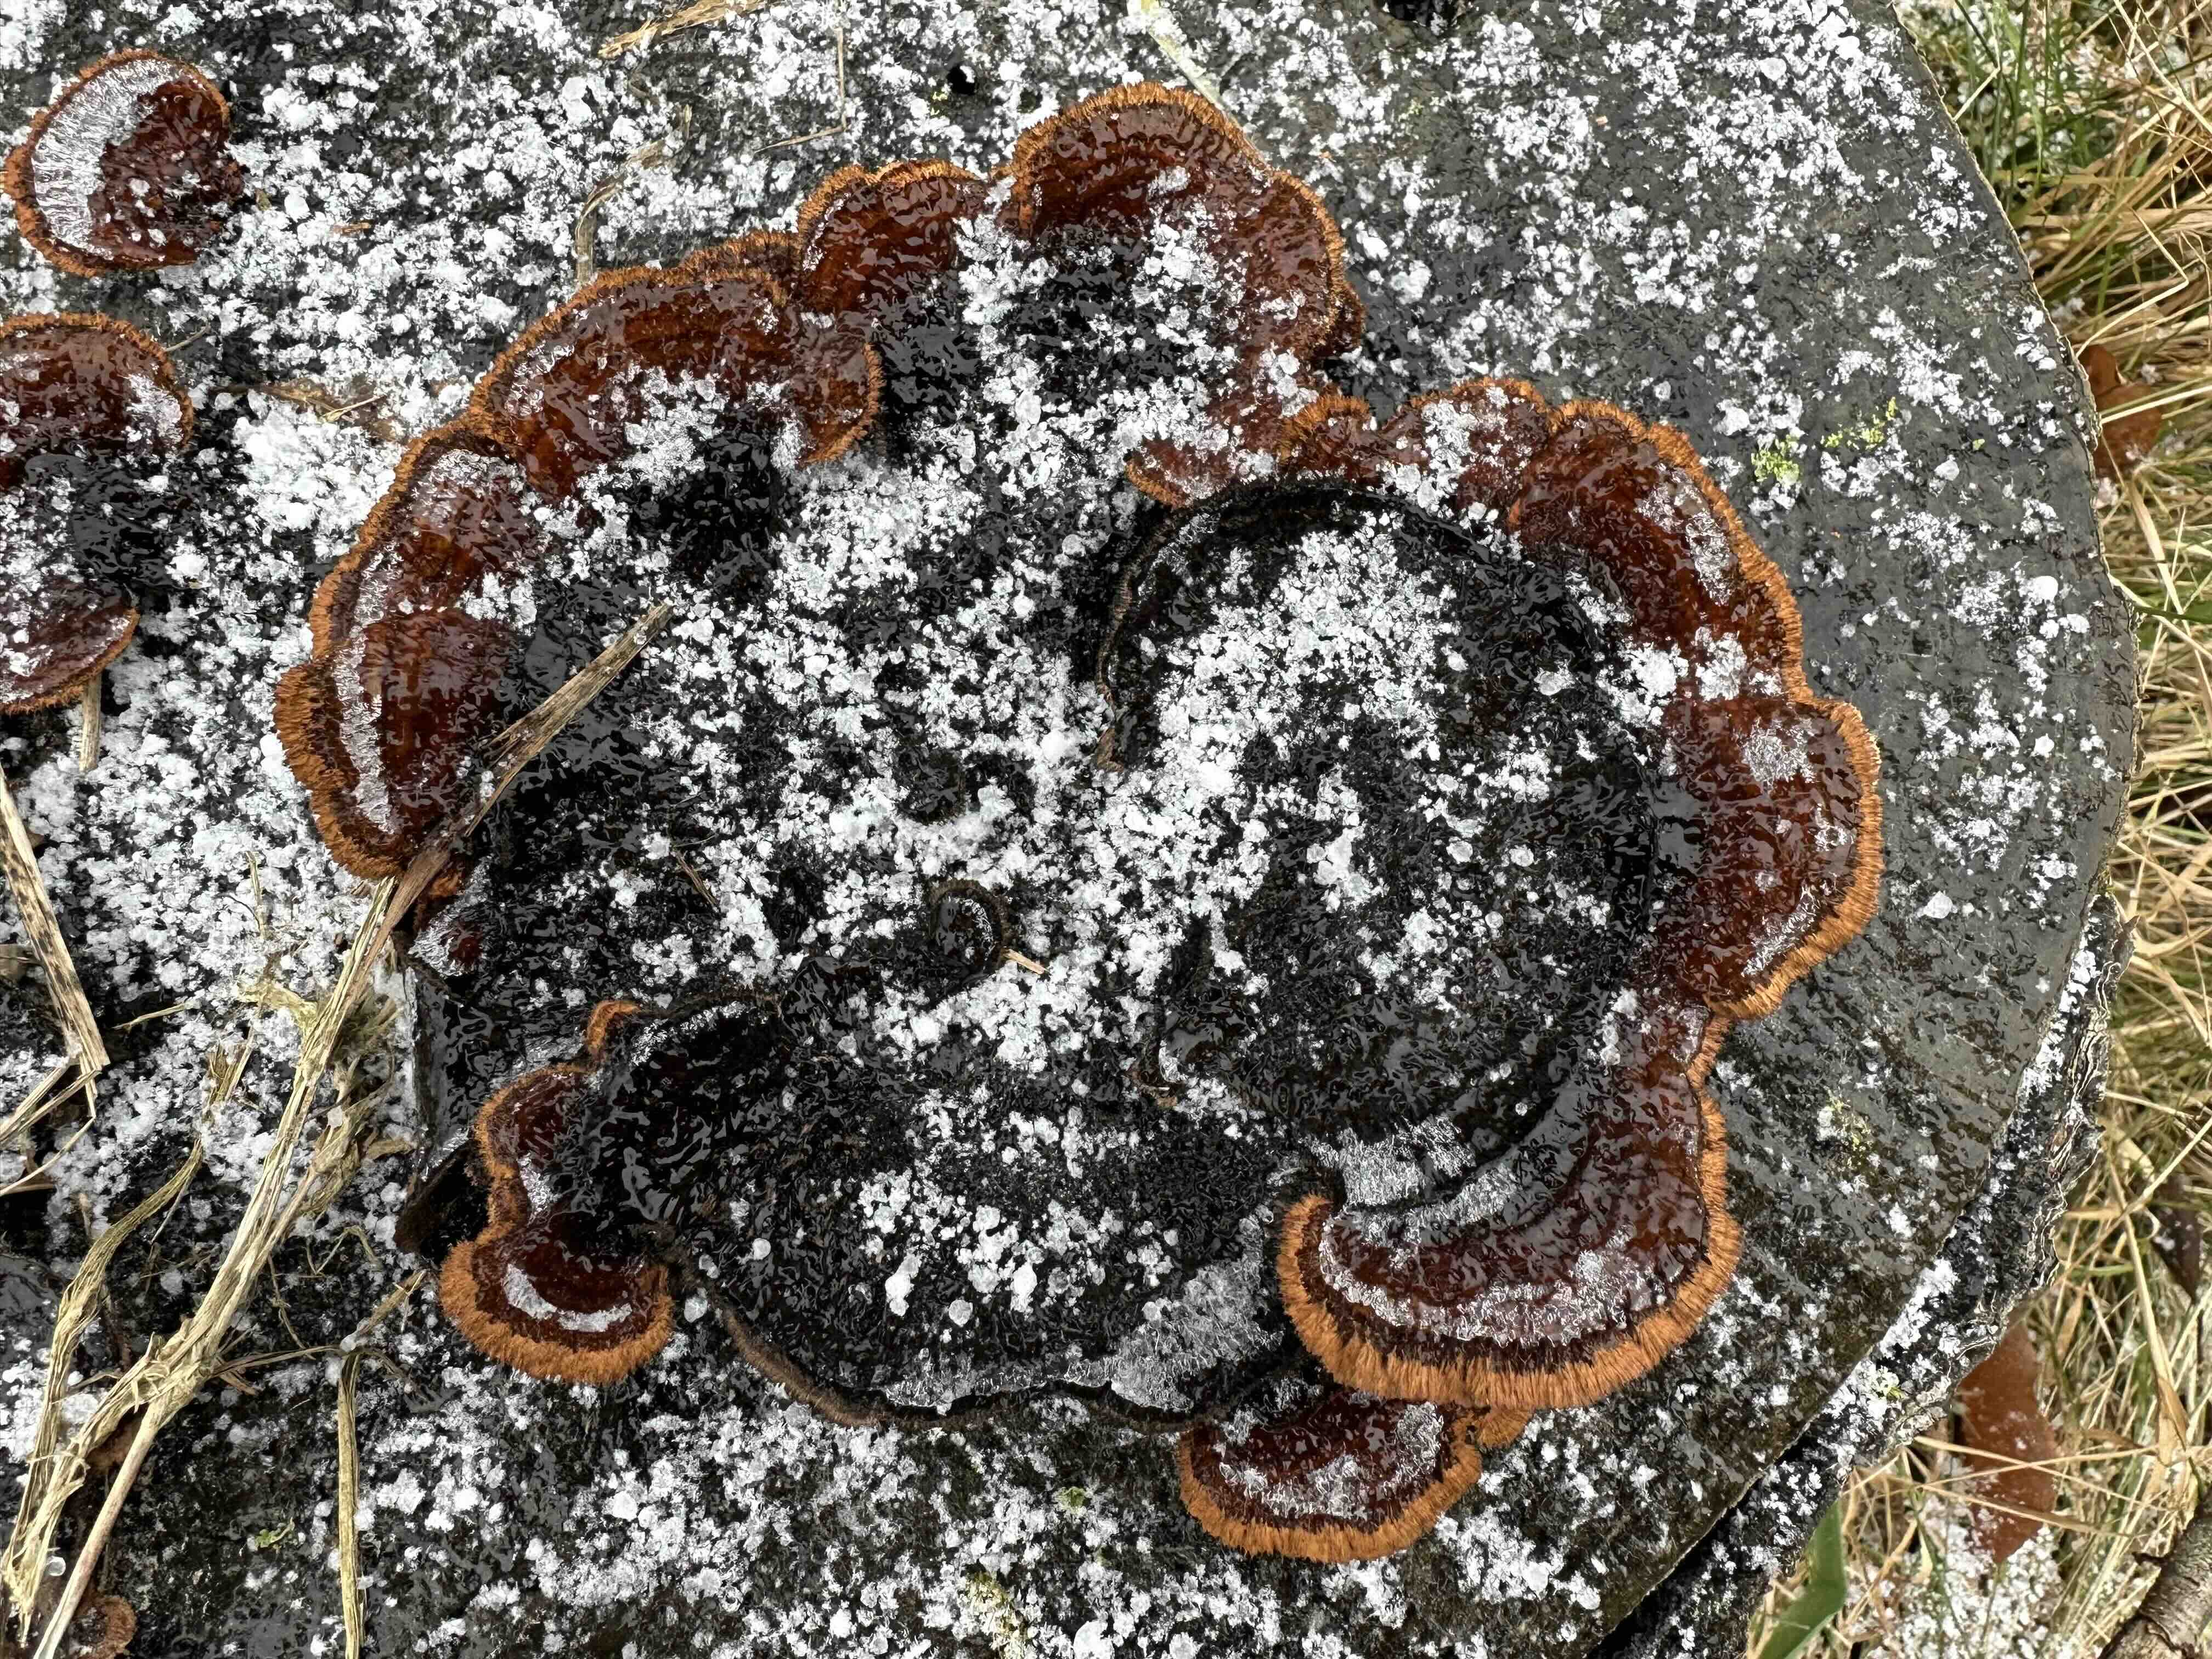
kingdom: Fungi
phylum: Basidiomycota
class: Agaricomycetes
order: Gloeophyllales
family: Gloeophyllaceae
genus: Gloeophyllum
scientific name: Gloeophyllum sepiarium
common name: fyrre-korkhat
